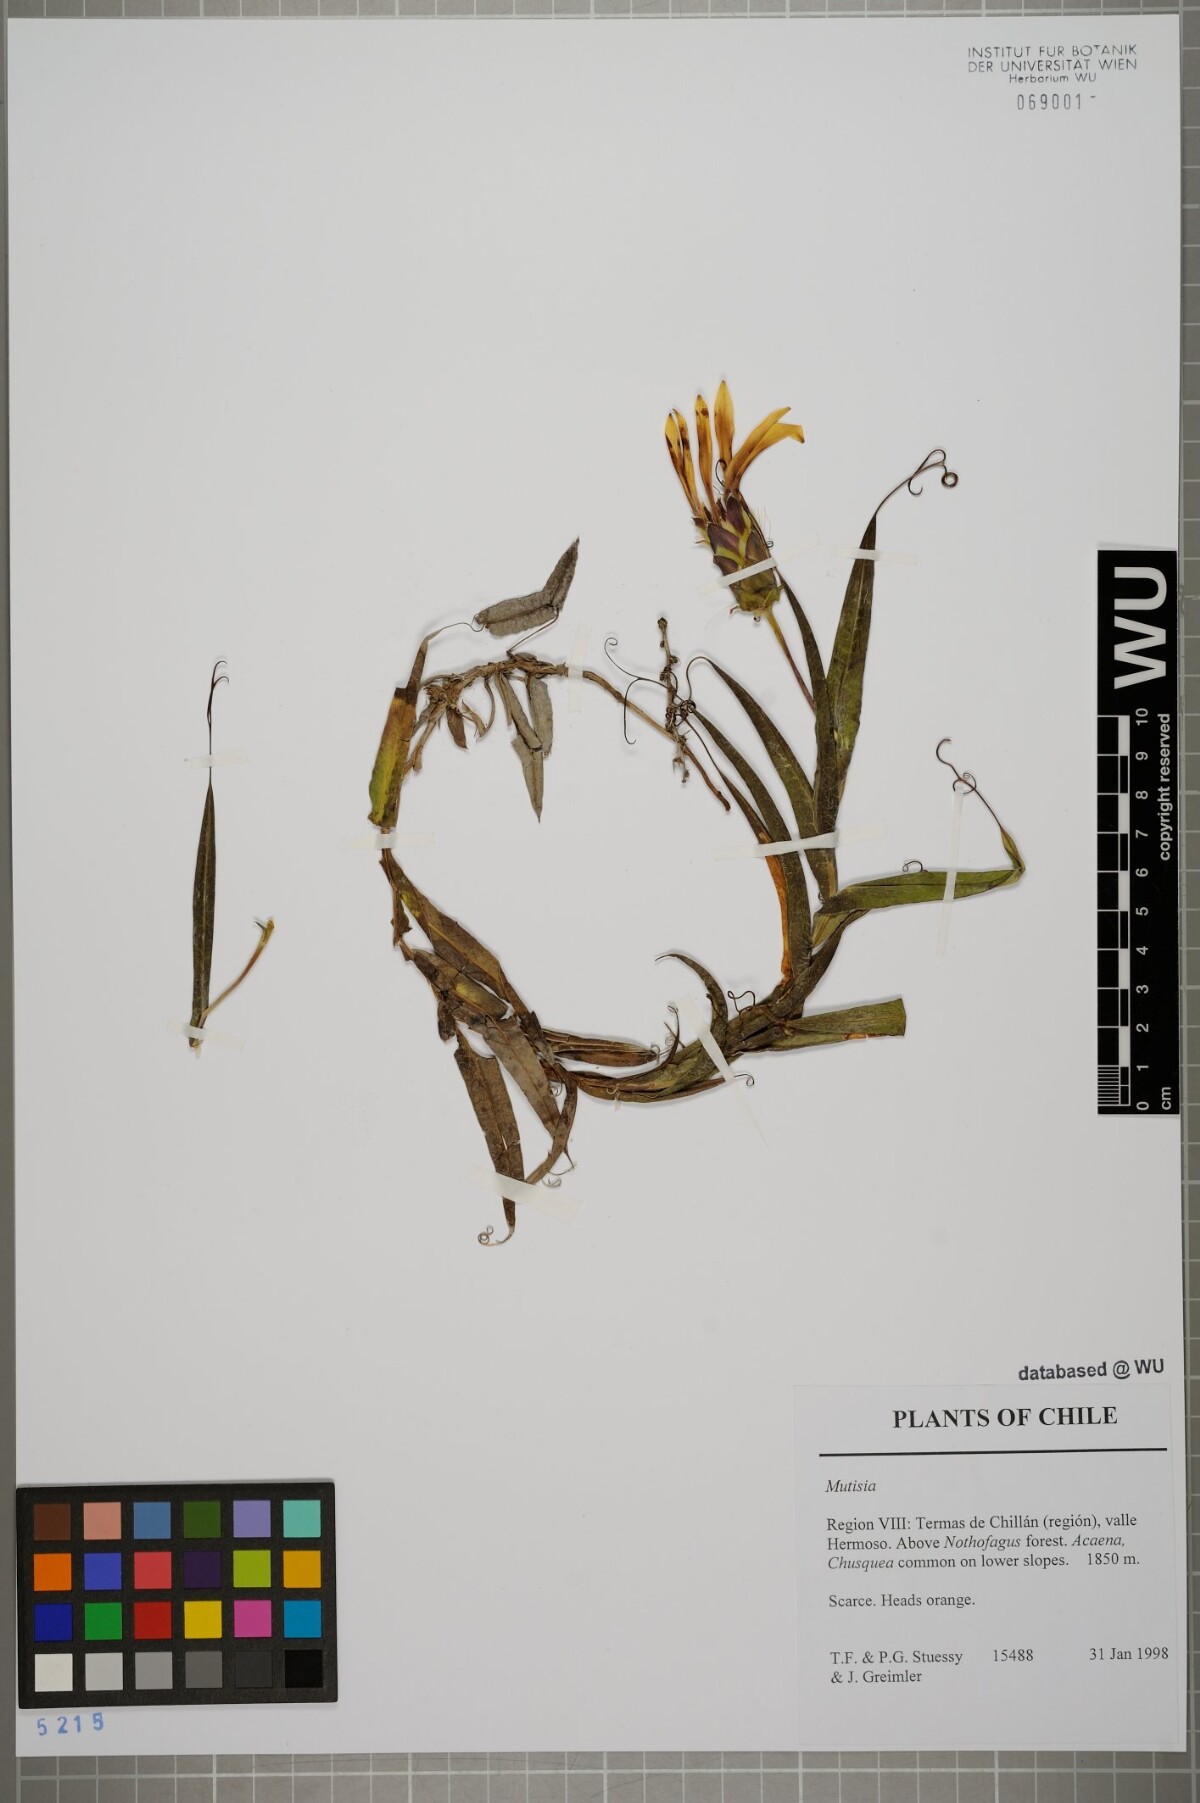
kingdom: Plantae
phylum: Tracheophyta
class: Magnoliopsida
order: Asterales
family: Asteraceae
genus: Mutisia
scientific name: Mutisia
